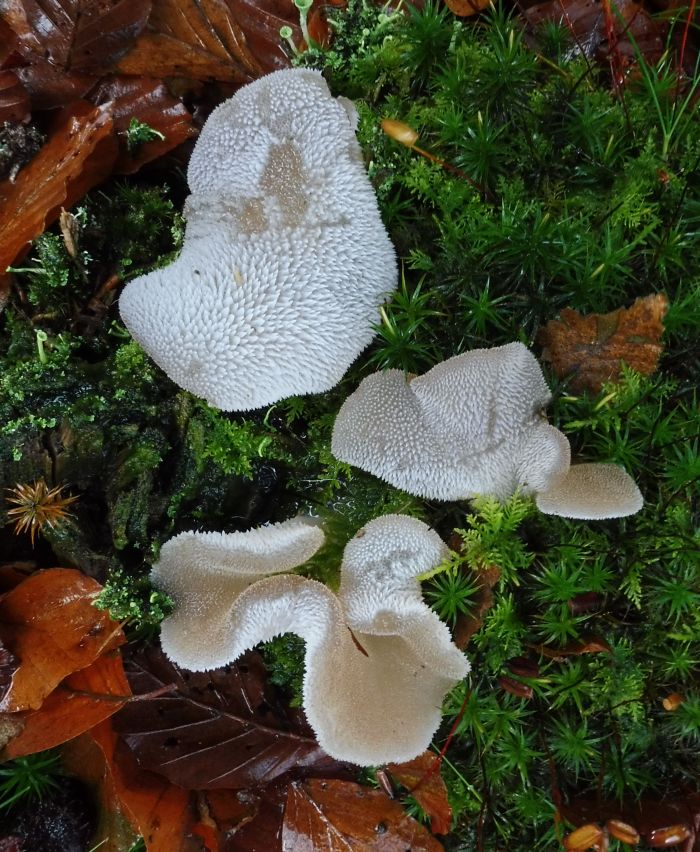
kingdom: Fungi
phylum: Basidiomycota
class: Agaricomycetes
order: Auriculariales
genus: Pseudohydnum
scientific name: Pseudohydnum gelatinosum
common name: bævretand
